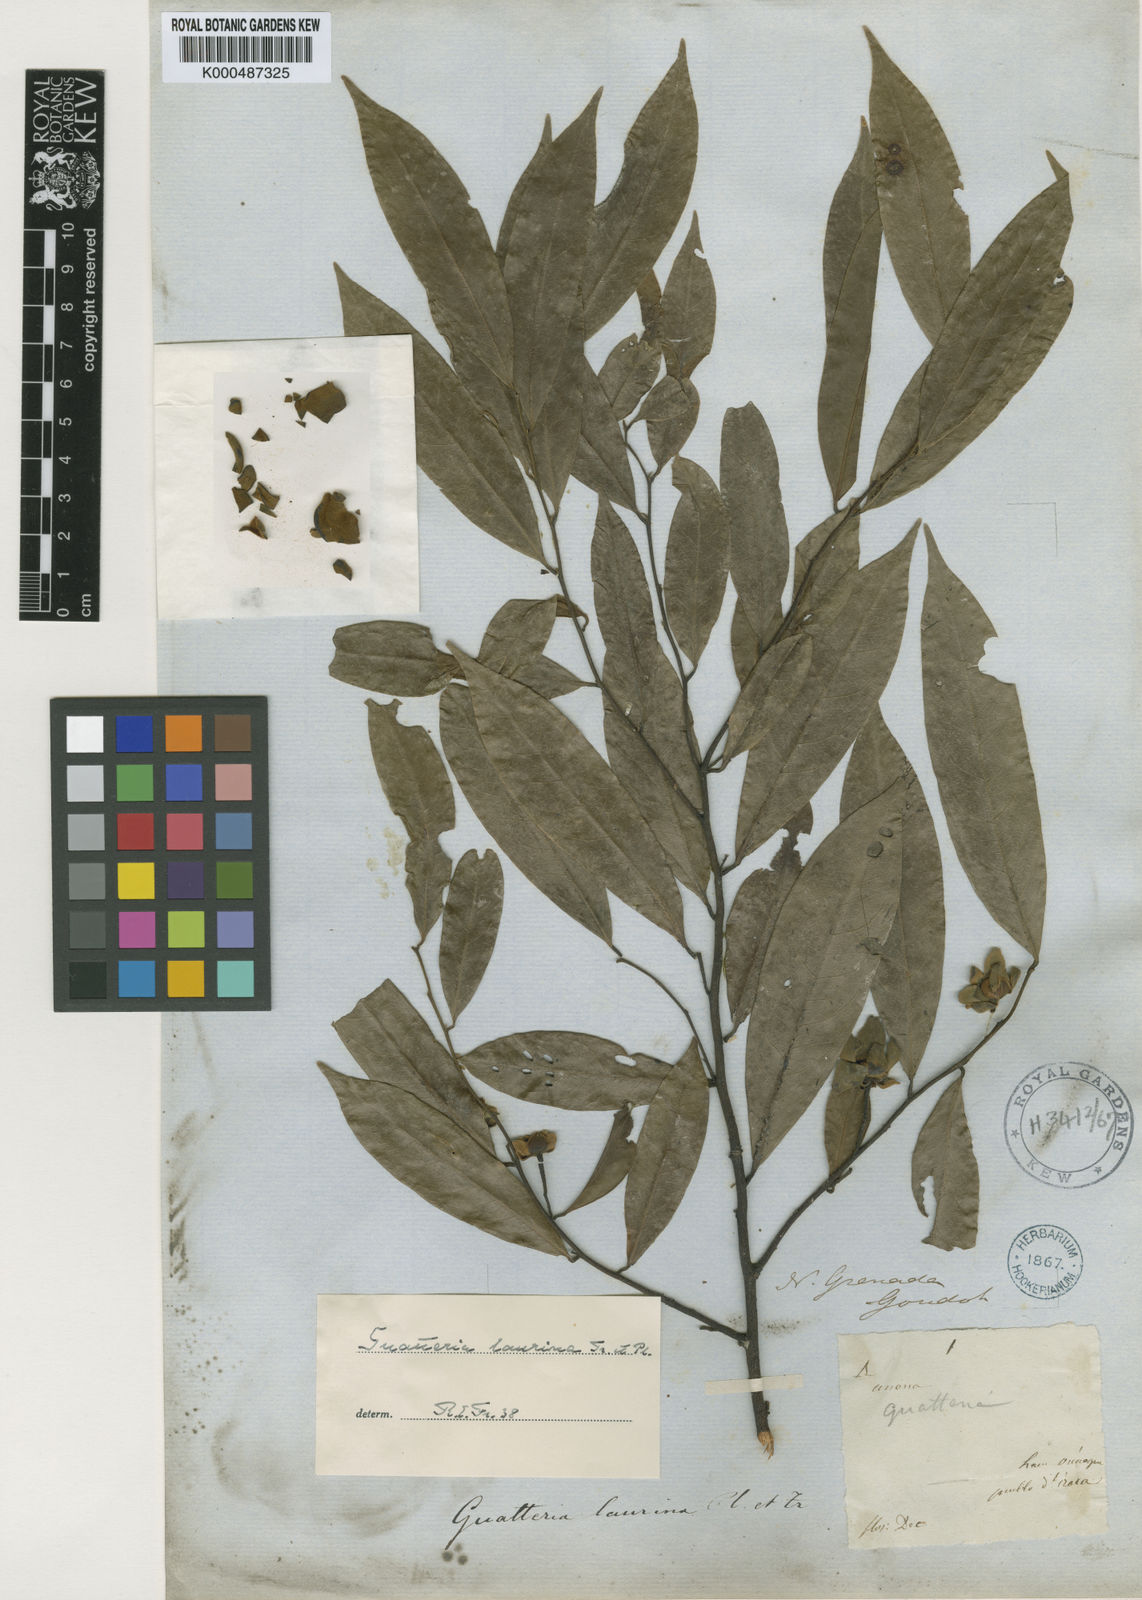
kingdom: Plantae
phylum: Tracheophyta
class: Magnoliopsida
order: Magnoliales
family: Annonaceae
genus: Guatteria
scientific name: Guatteria laurina
